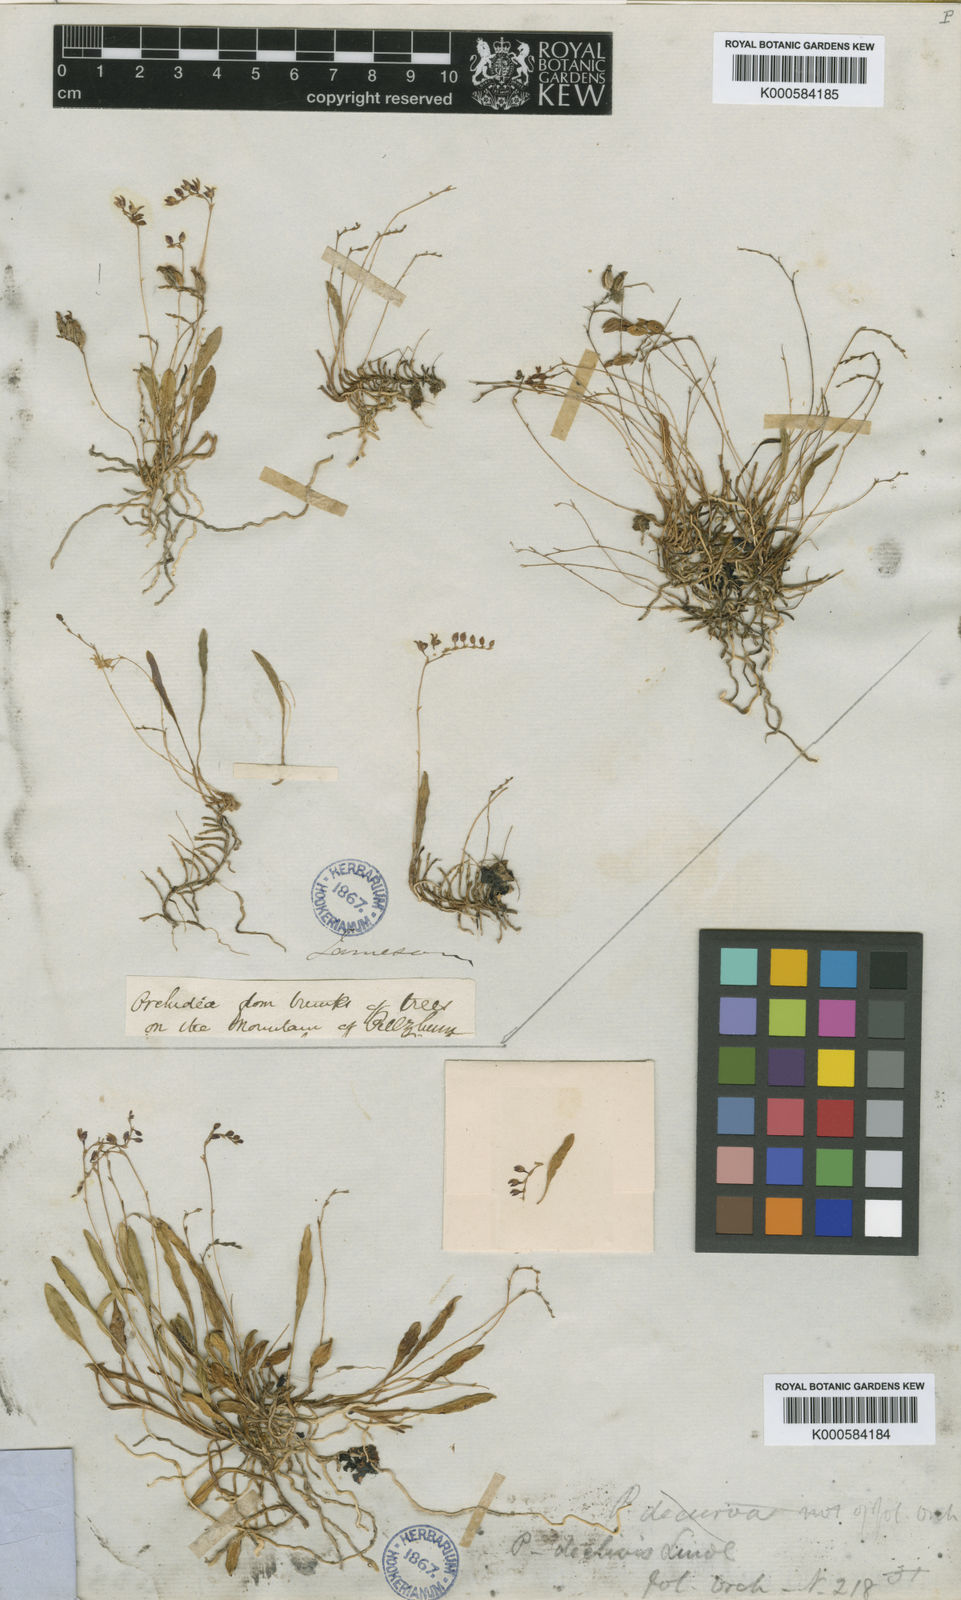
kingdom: Plantae
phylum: Tracheophyta
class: Liliopsida
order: Asparagales
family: Orchidaceae
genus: Stelis
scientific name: Stelis declivis
